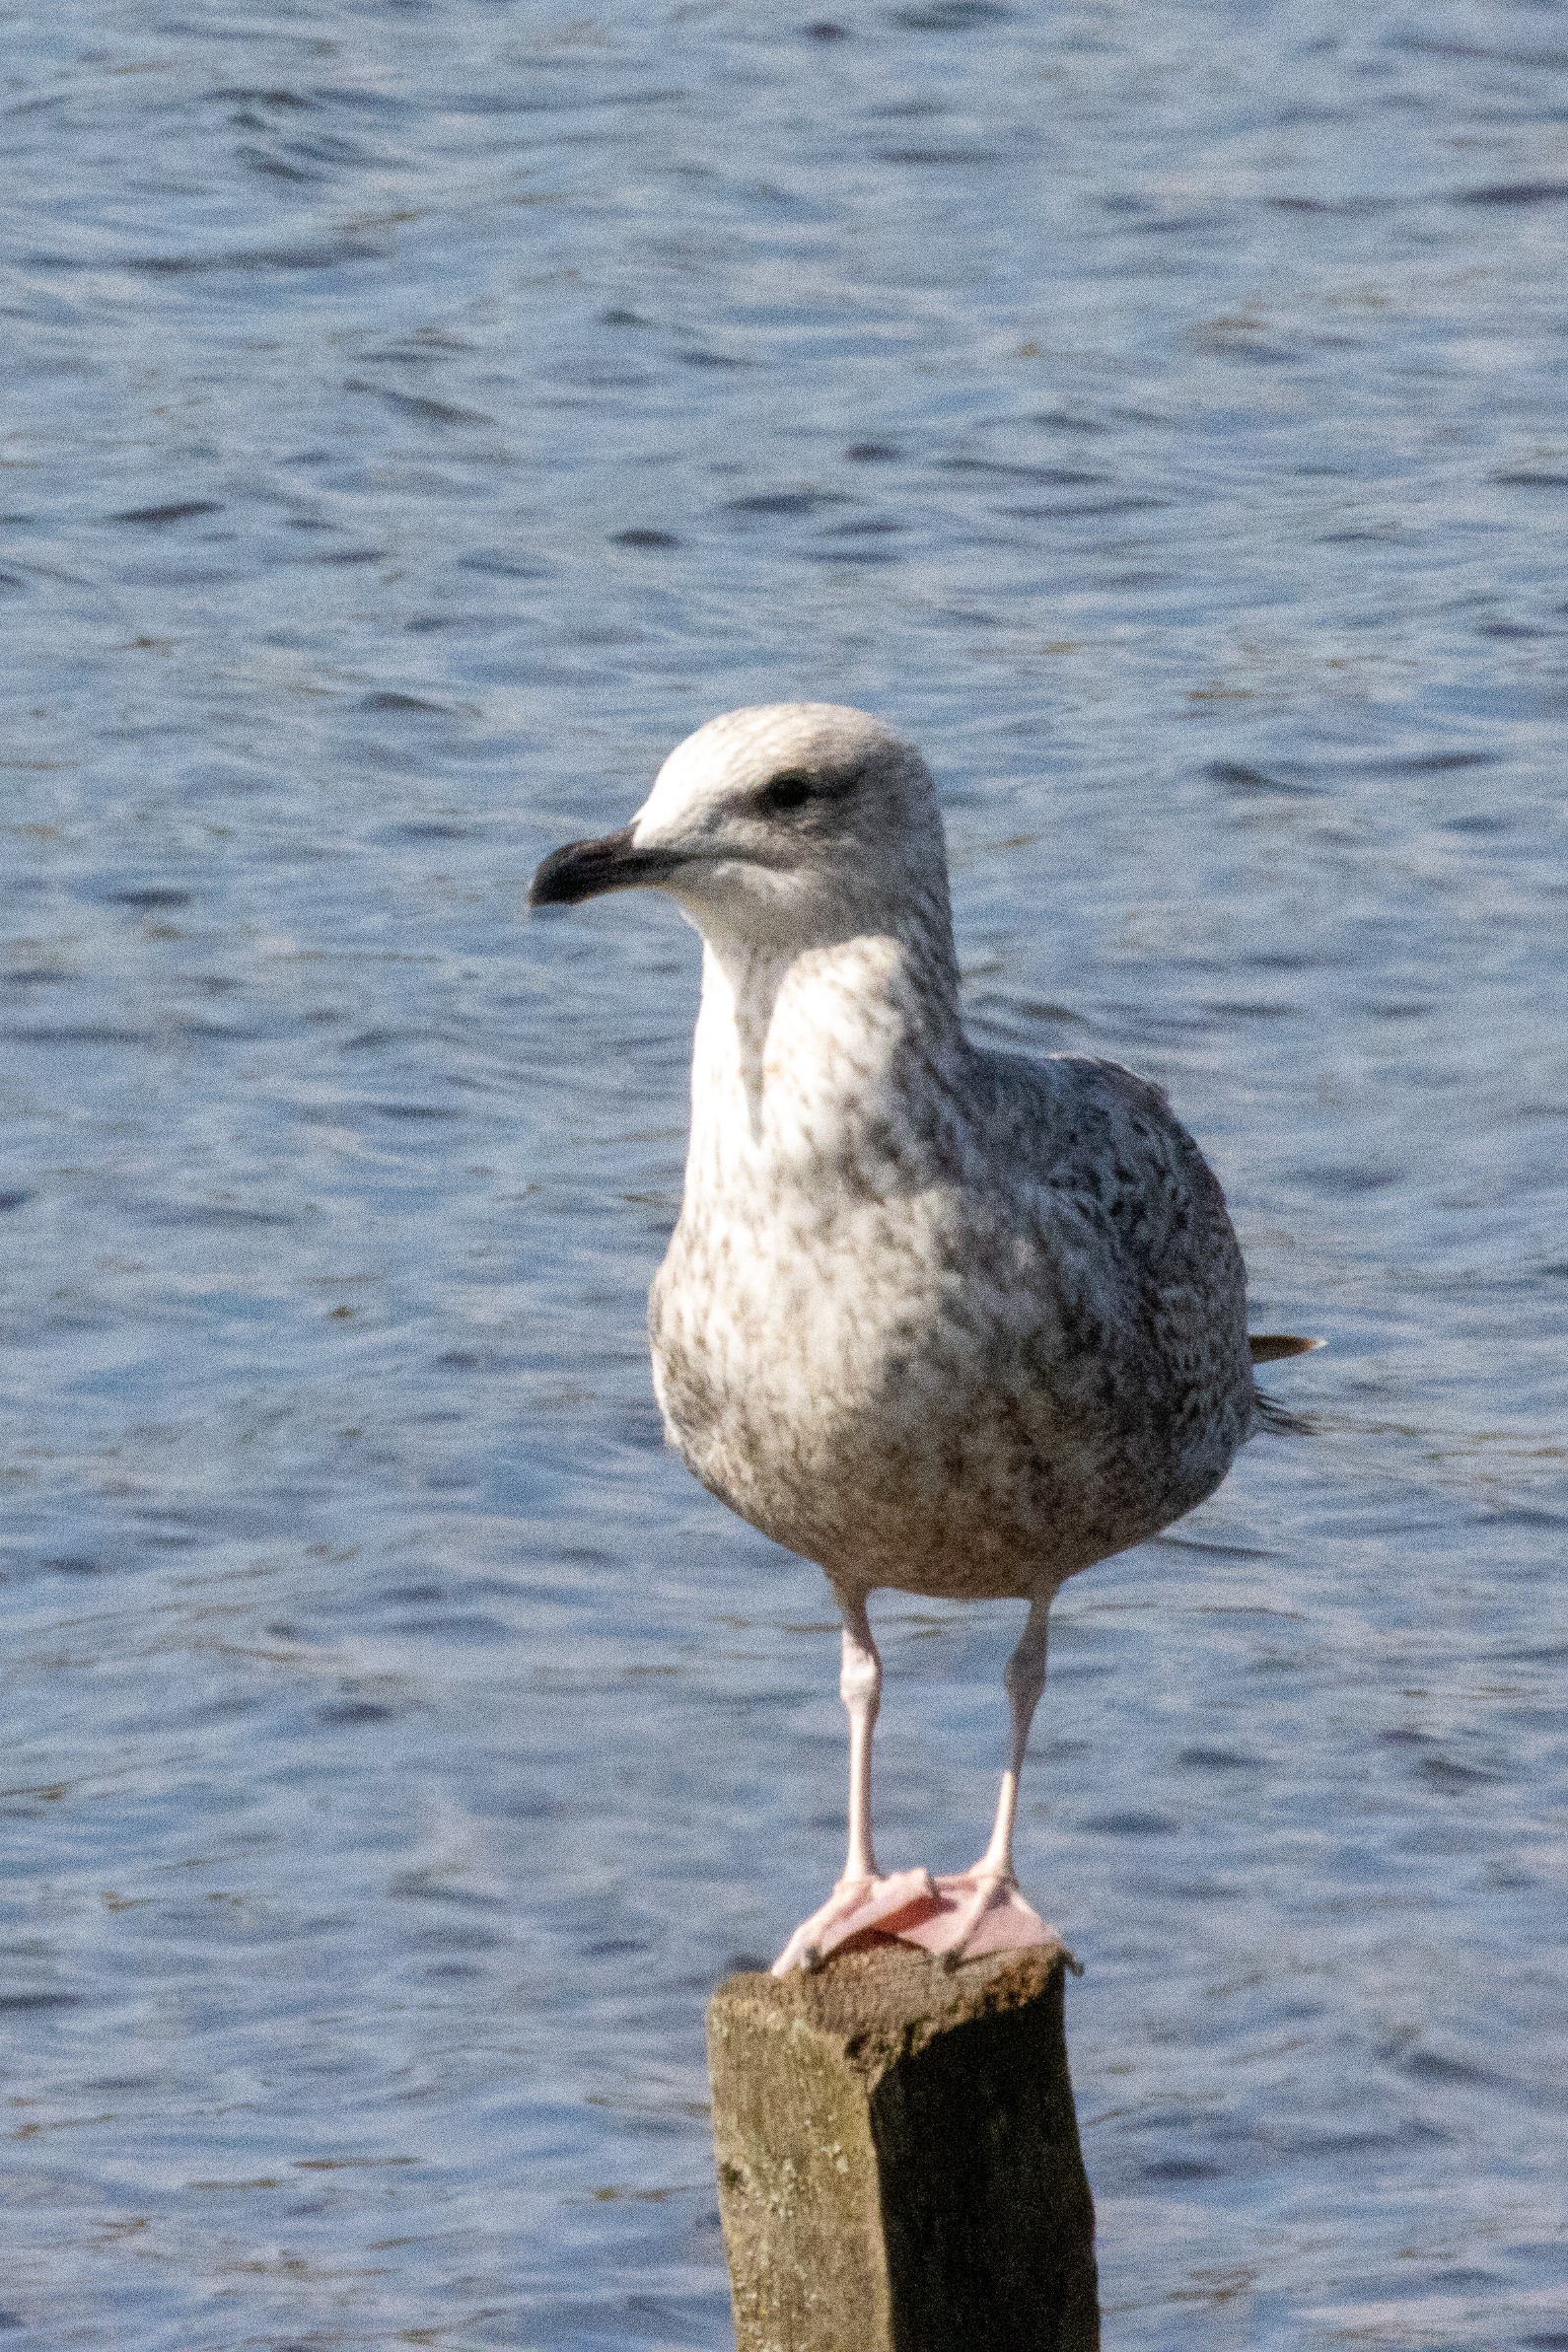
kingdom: Animalia
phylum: Chordata
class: Aves
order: Charadriiformes
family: Laridae
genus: Larus
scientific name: Larus argentatus
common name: Sølvmåge
